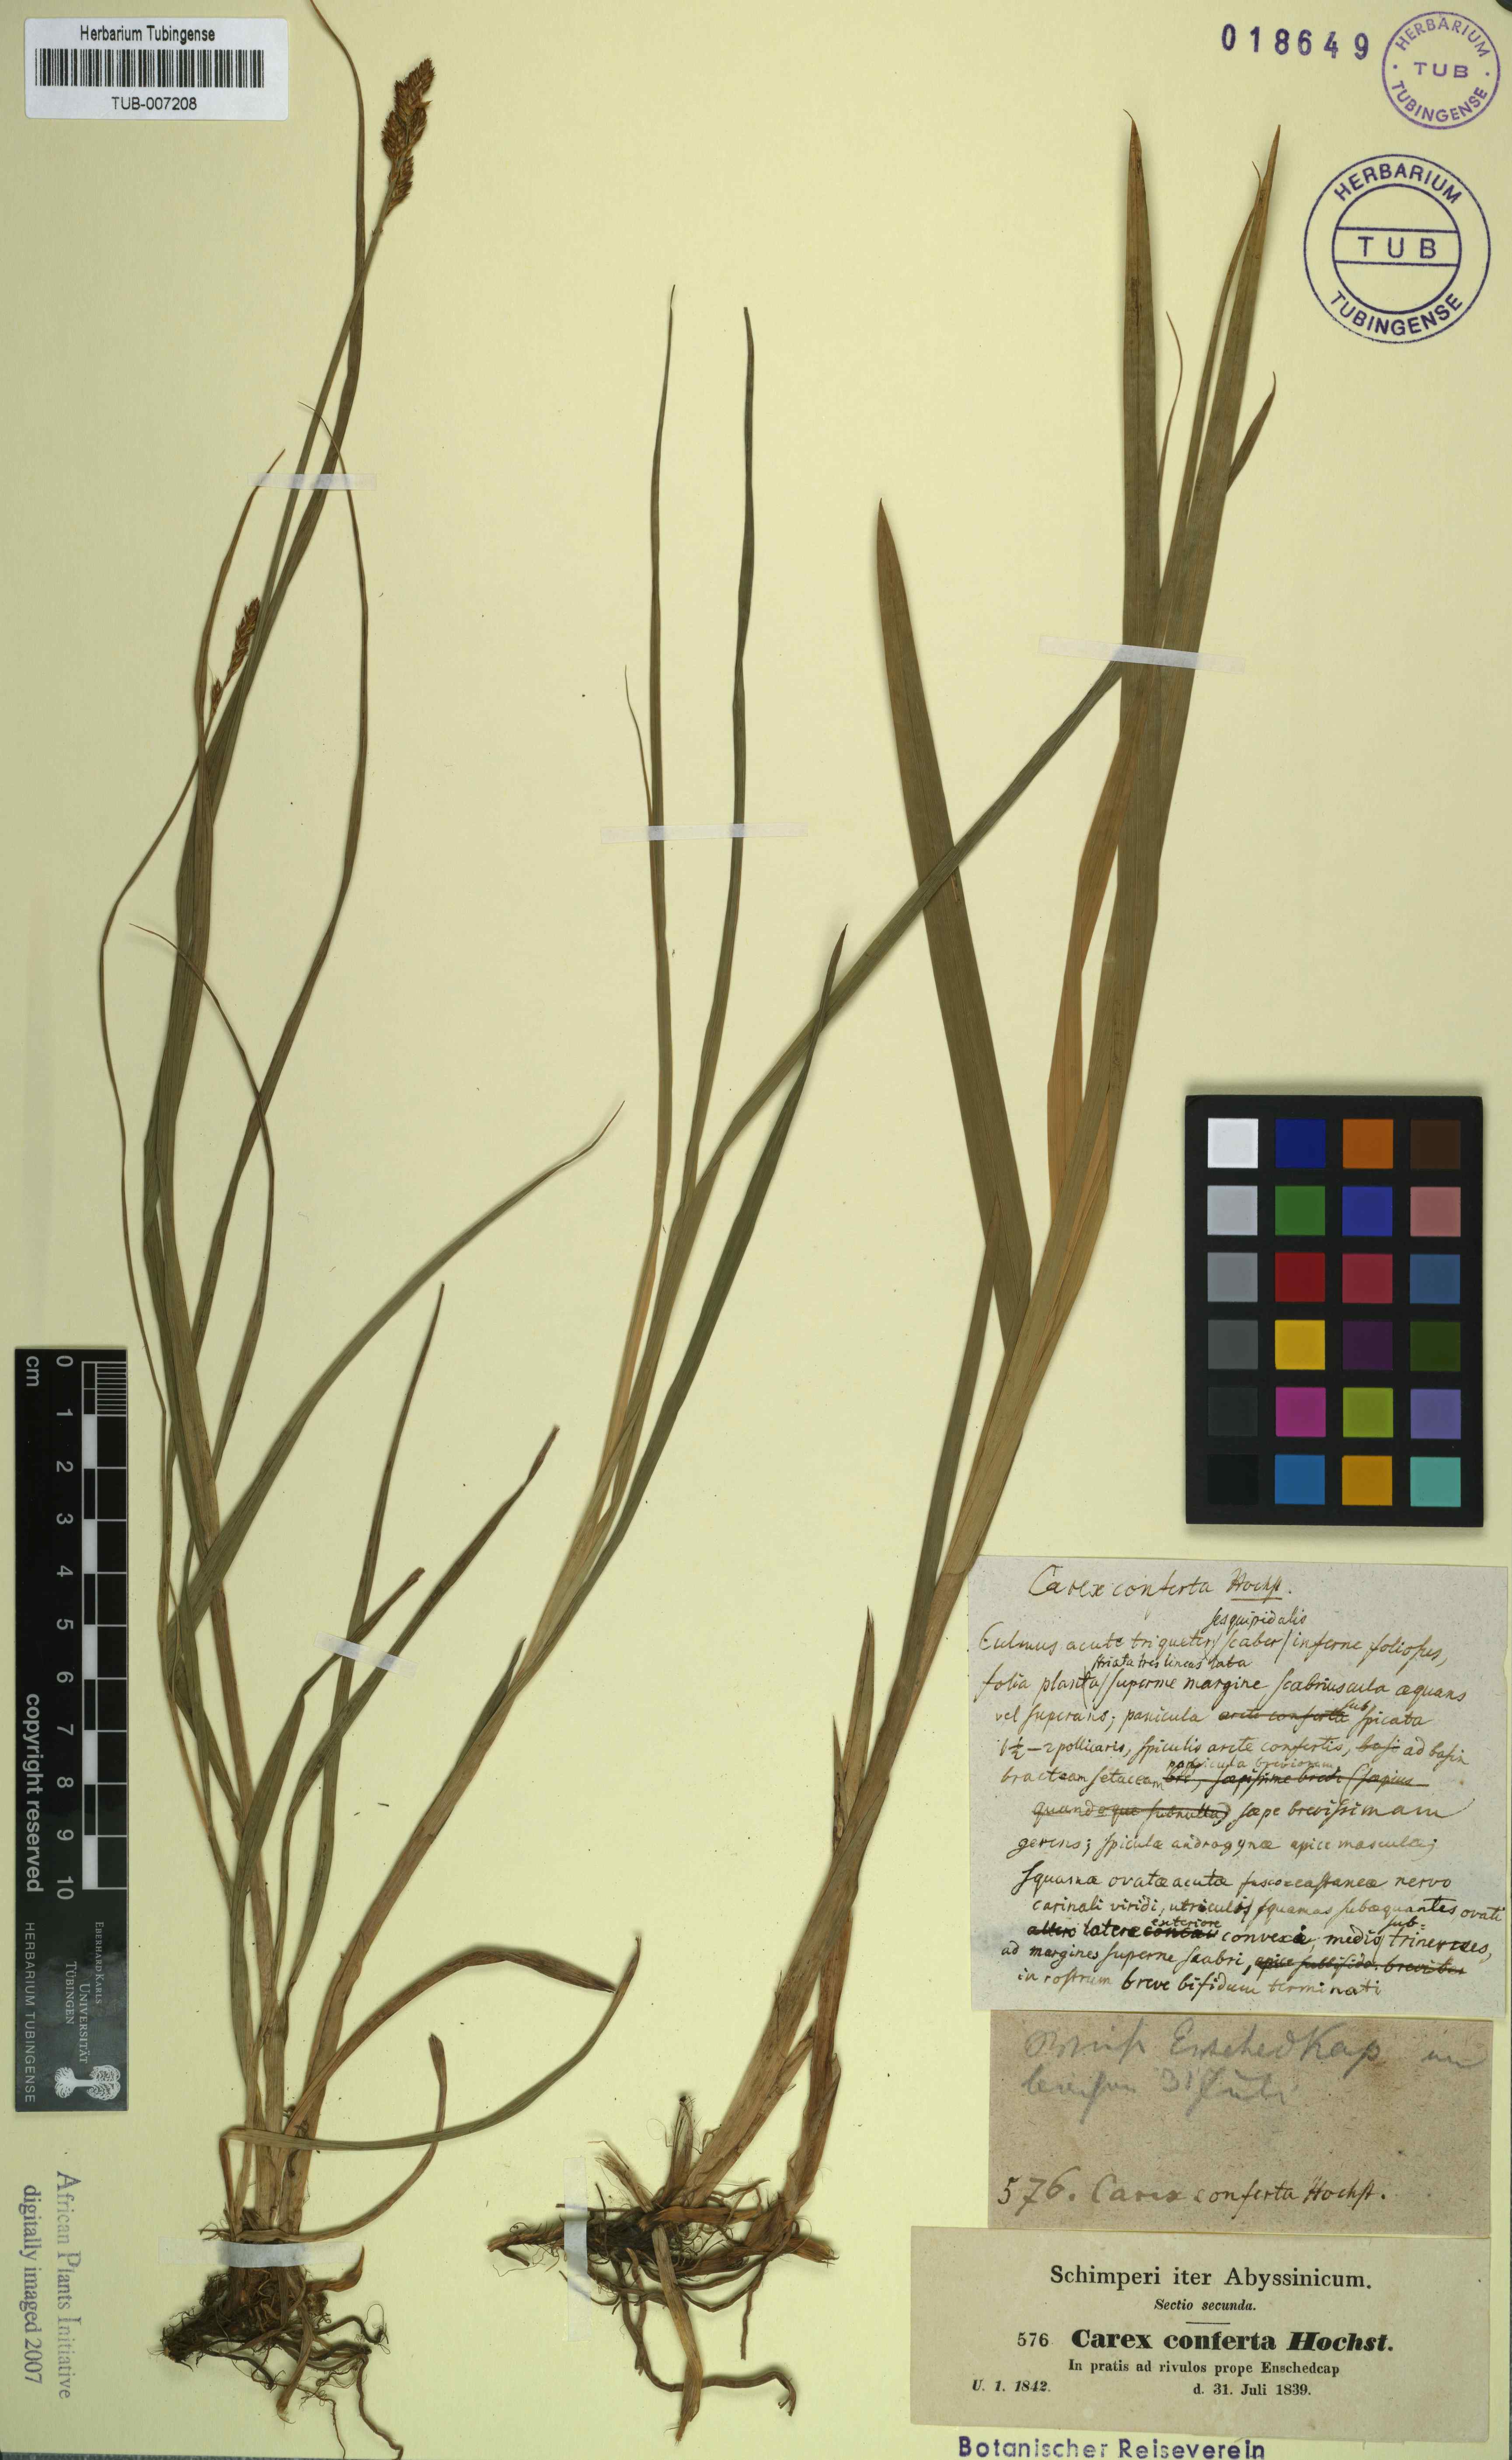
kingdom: Plantae
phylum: Tracheophyta
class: Liliopsida
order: Poales
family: Cyperaceae
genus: Carex
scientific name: Carex conferta
